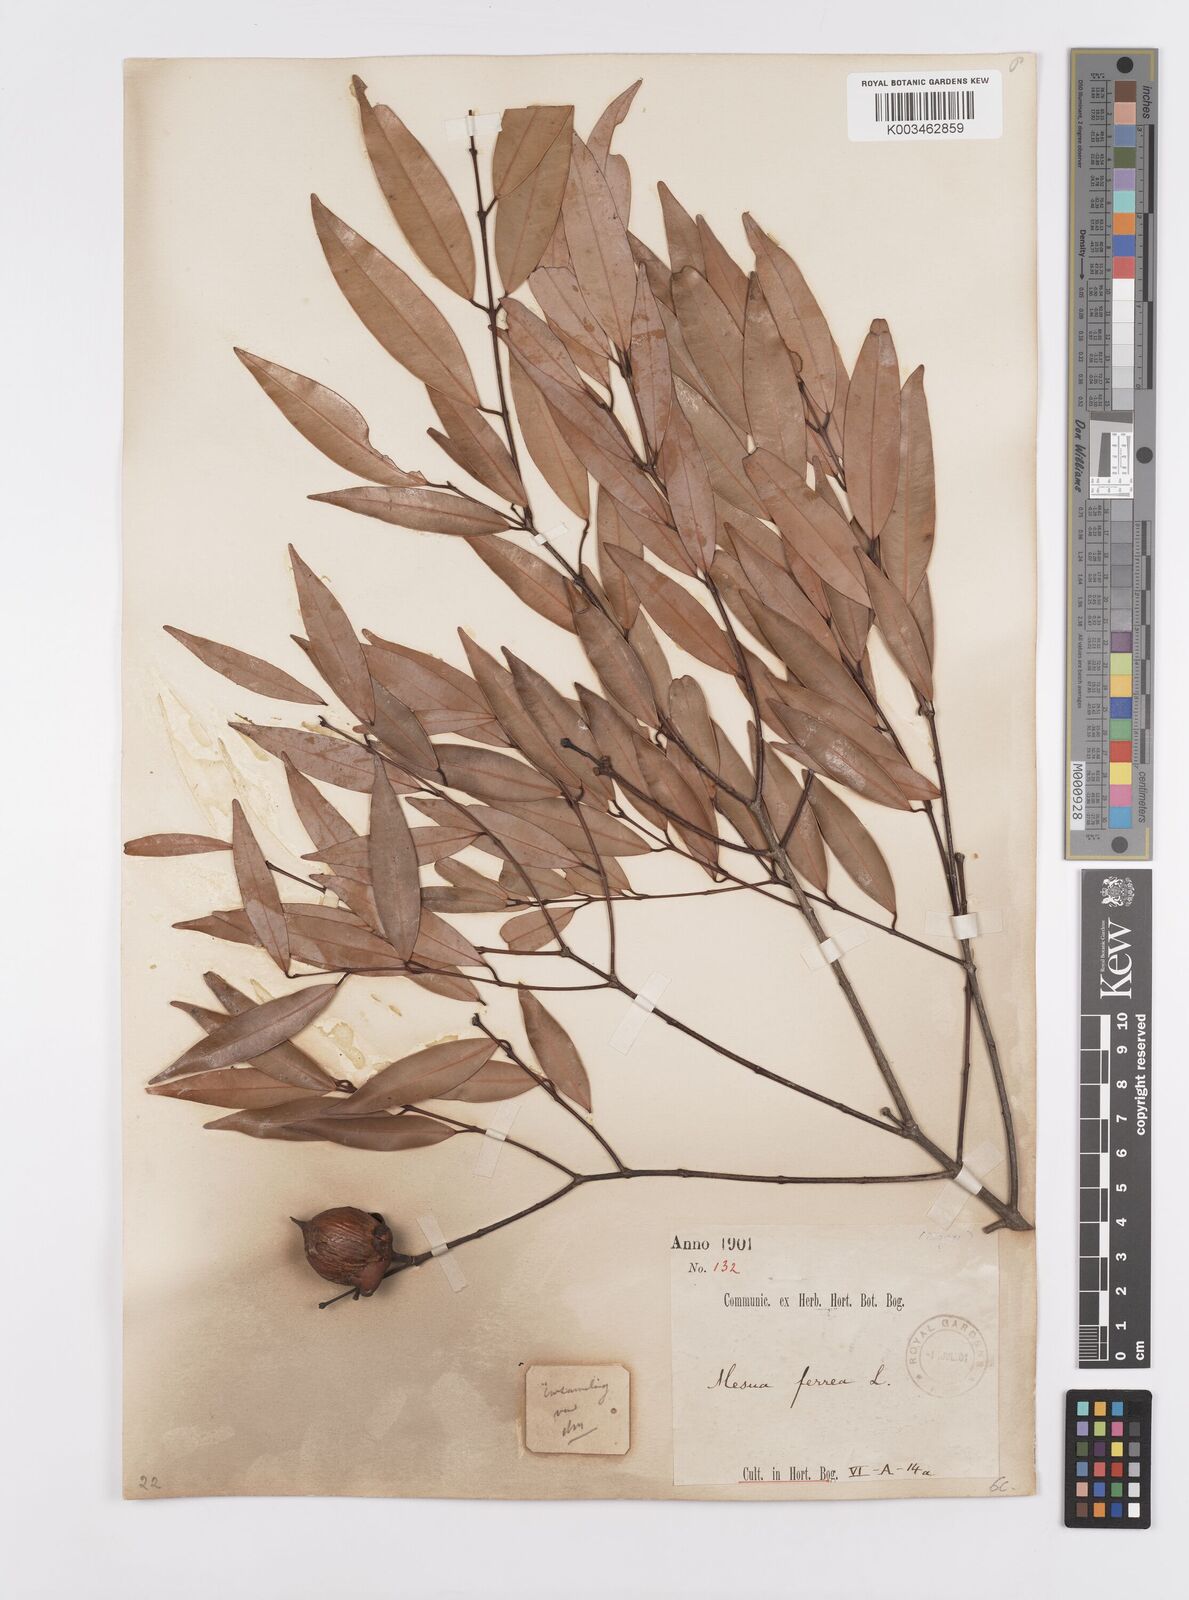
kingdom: Plantae
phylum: Tracheophyta
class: Magnoliopsida
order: Malpighiales
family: Calophyllaceae
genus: Mesua
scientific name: Mesua ferrea
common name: Mesua
